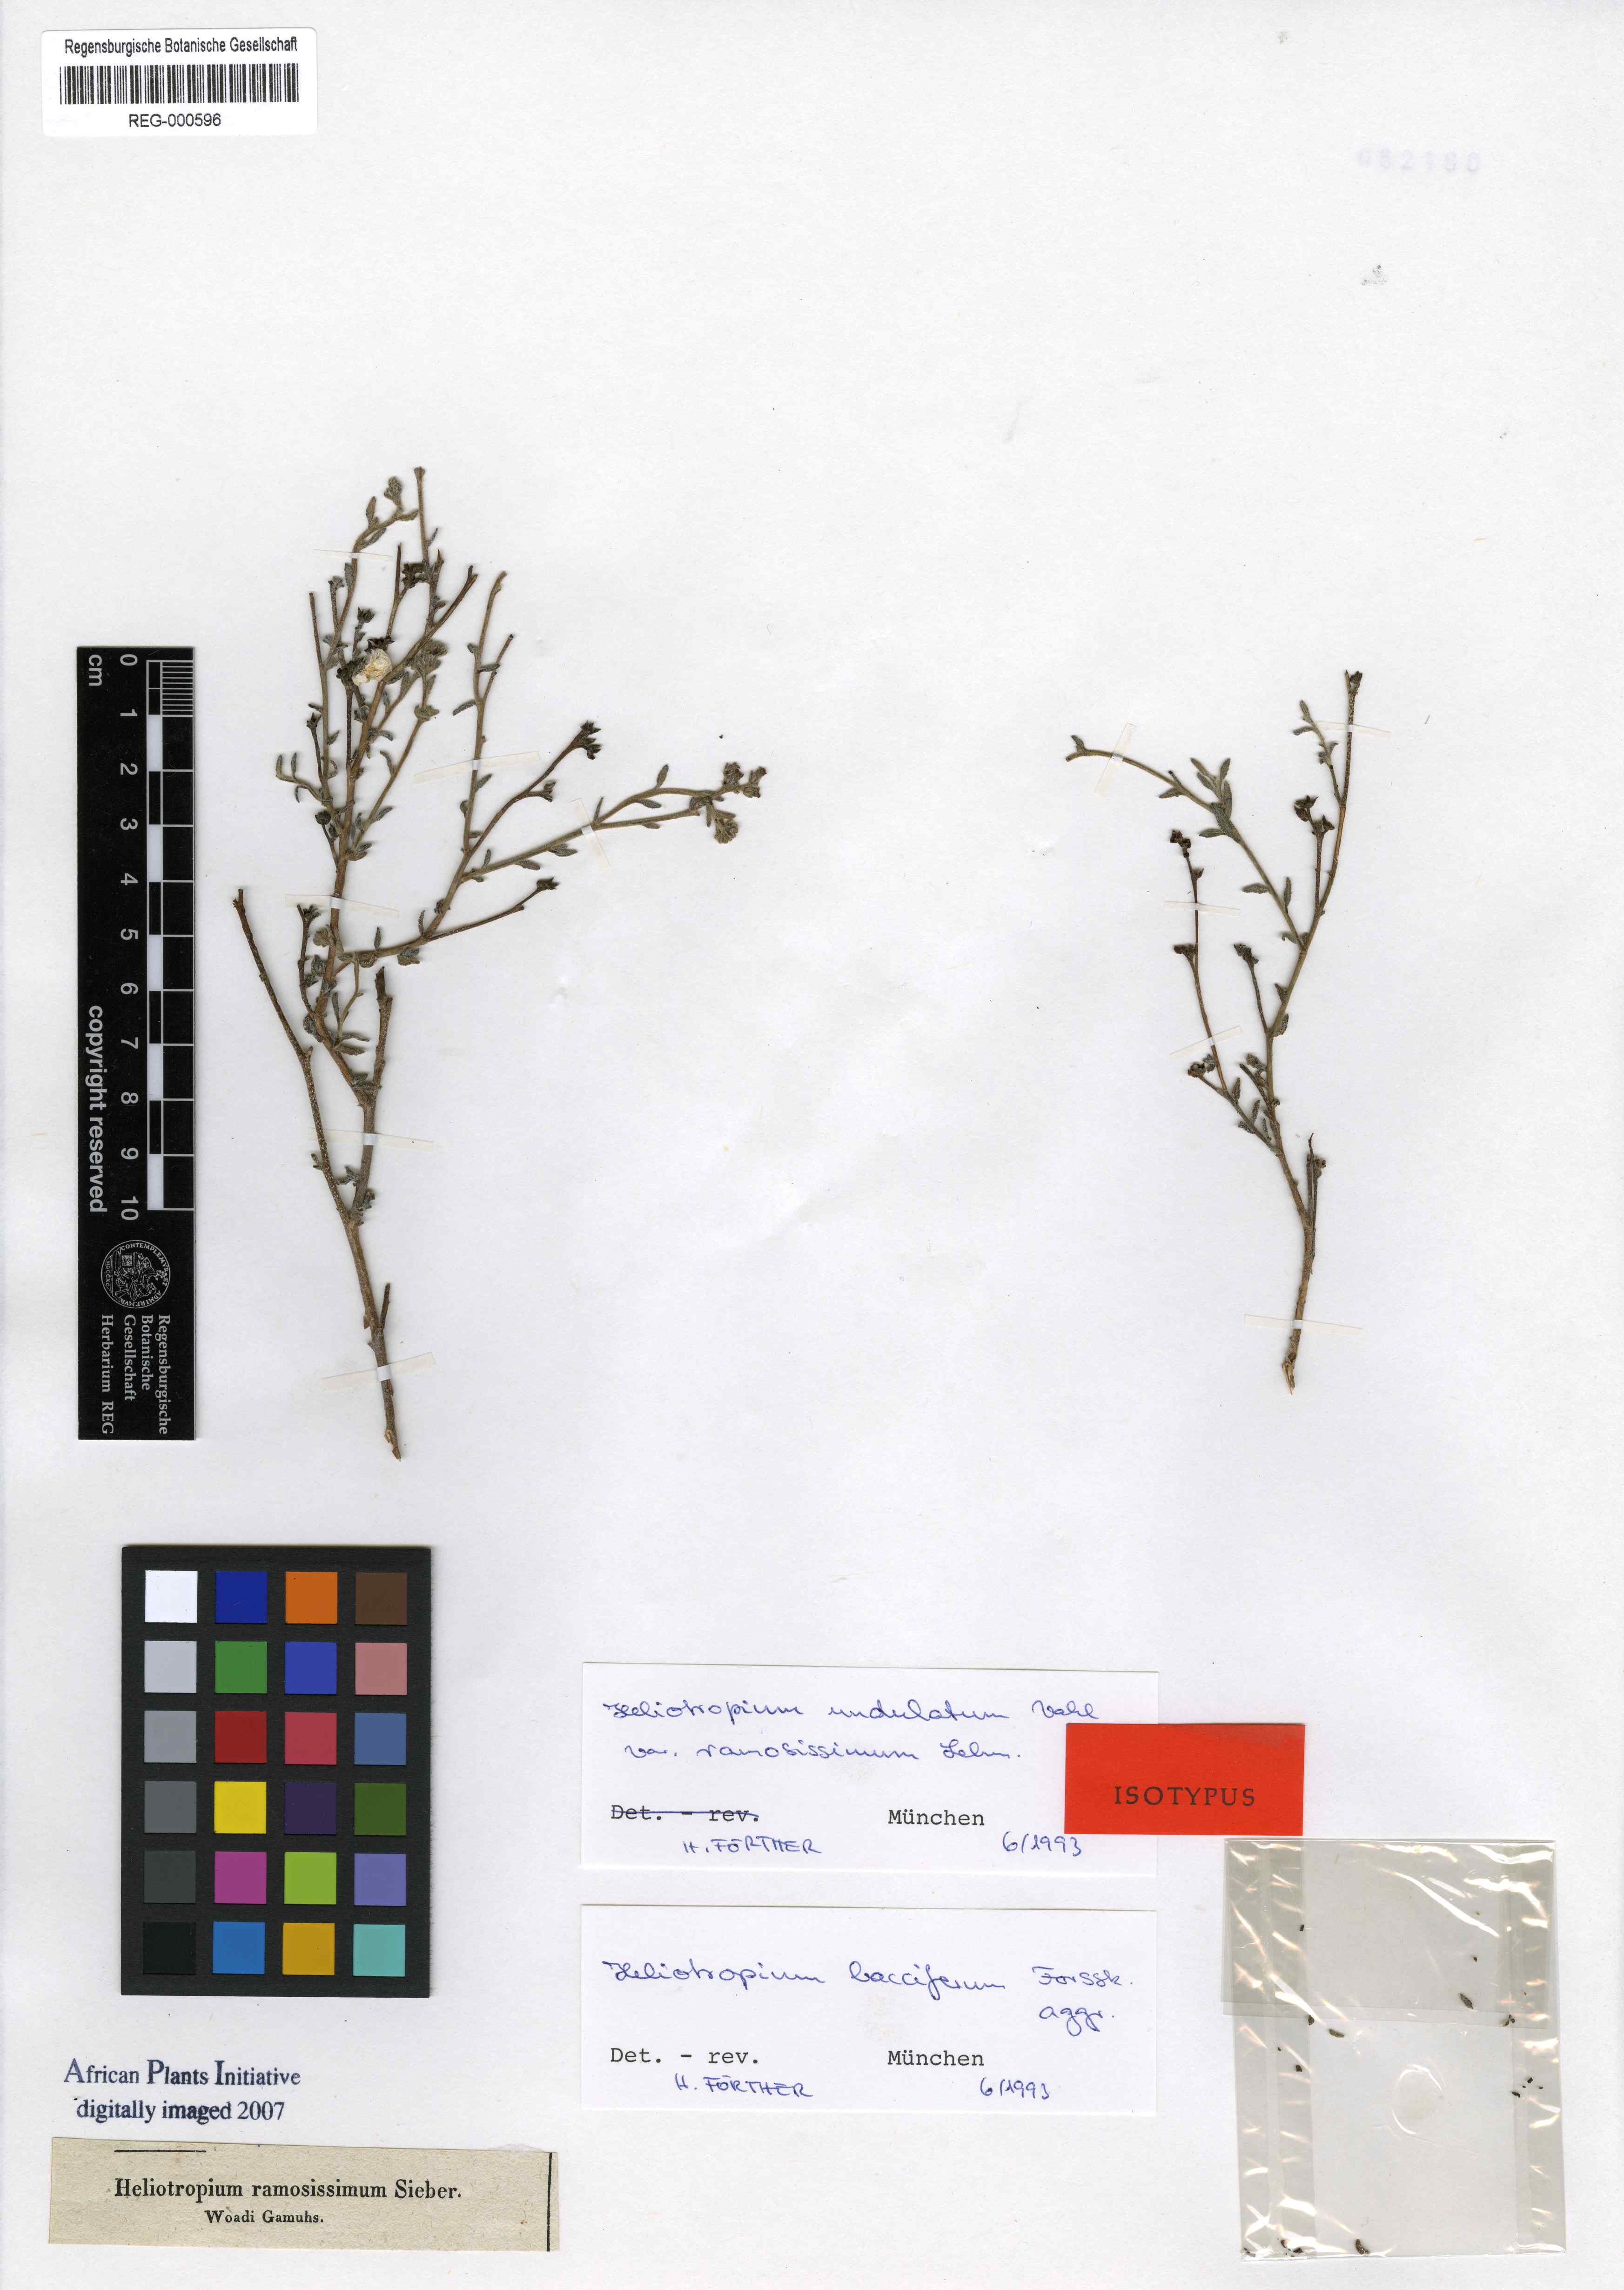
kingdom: Plantae
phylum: Tracheophyta
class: Magnoliopsida
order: Boraginales
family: Heliotropiaceae
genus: Heliotropium
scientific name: Heliotropium ramosissimum
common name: Wavy heliotrope
